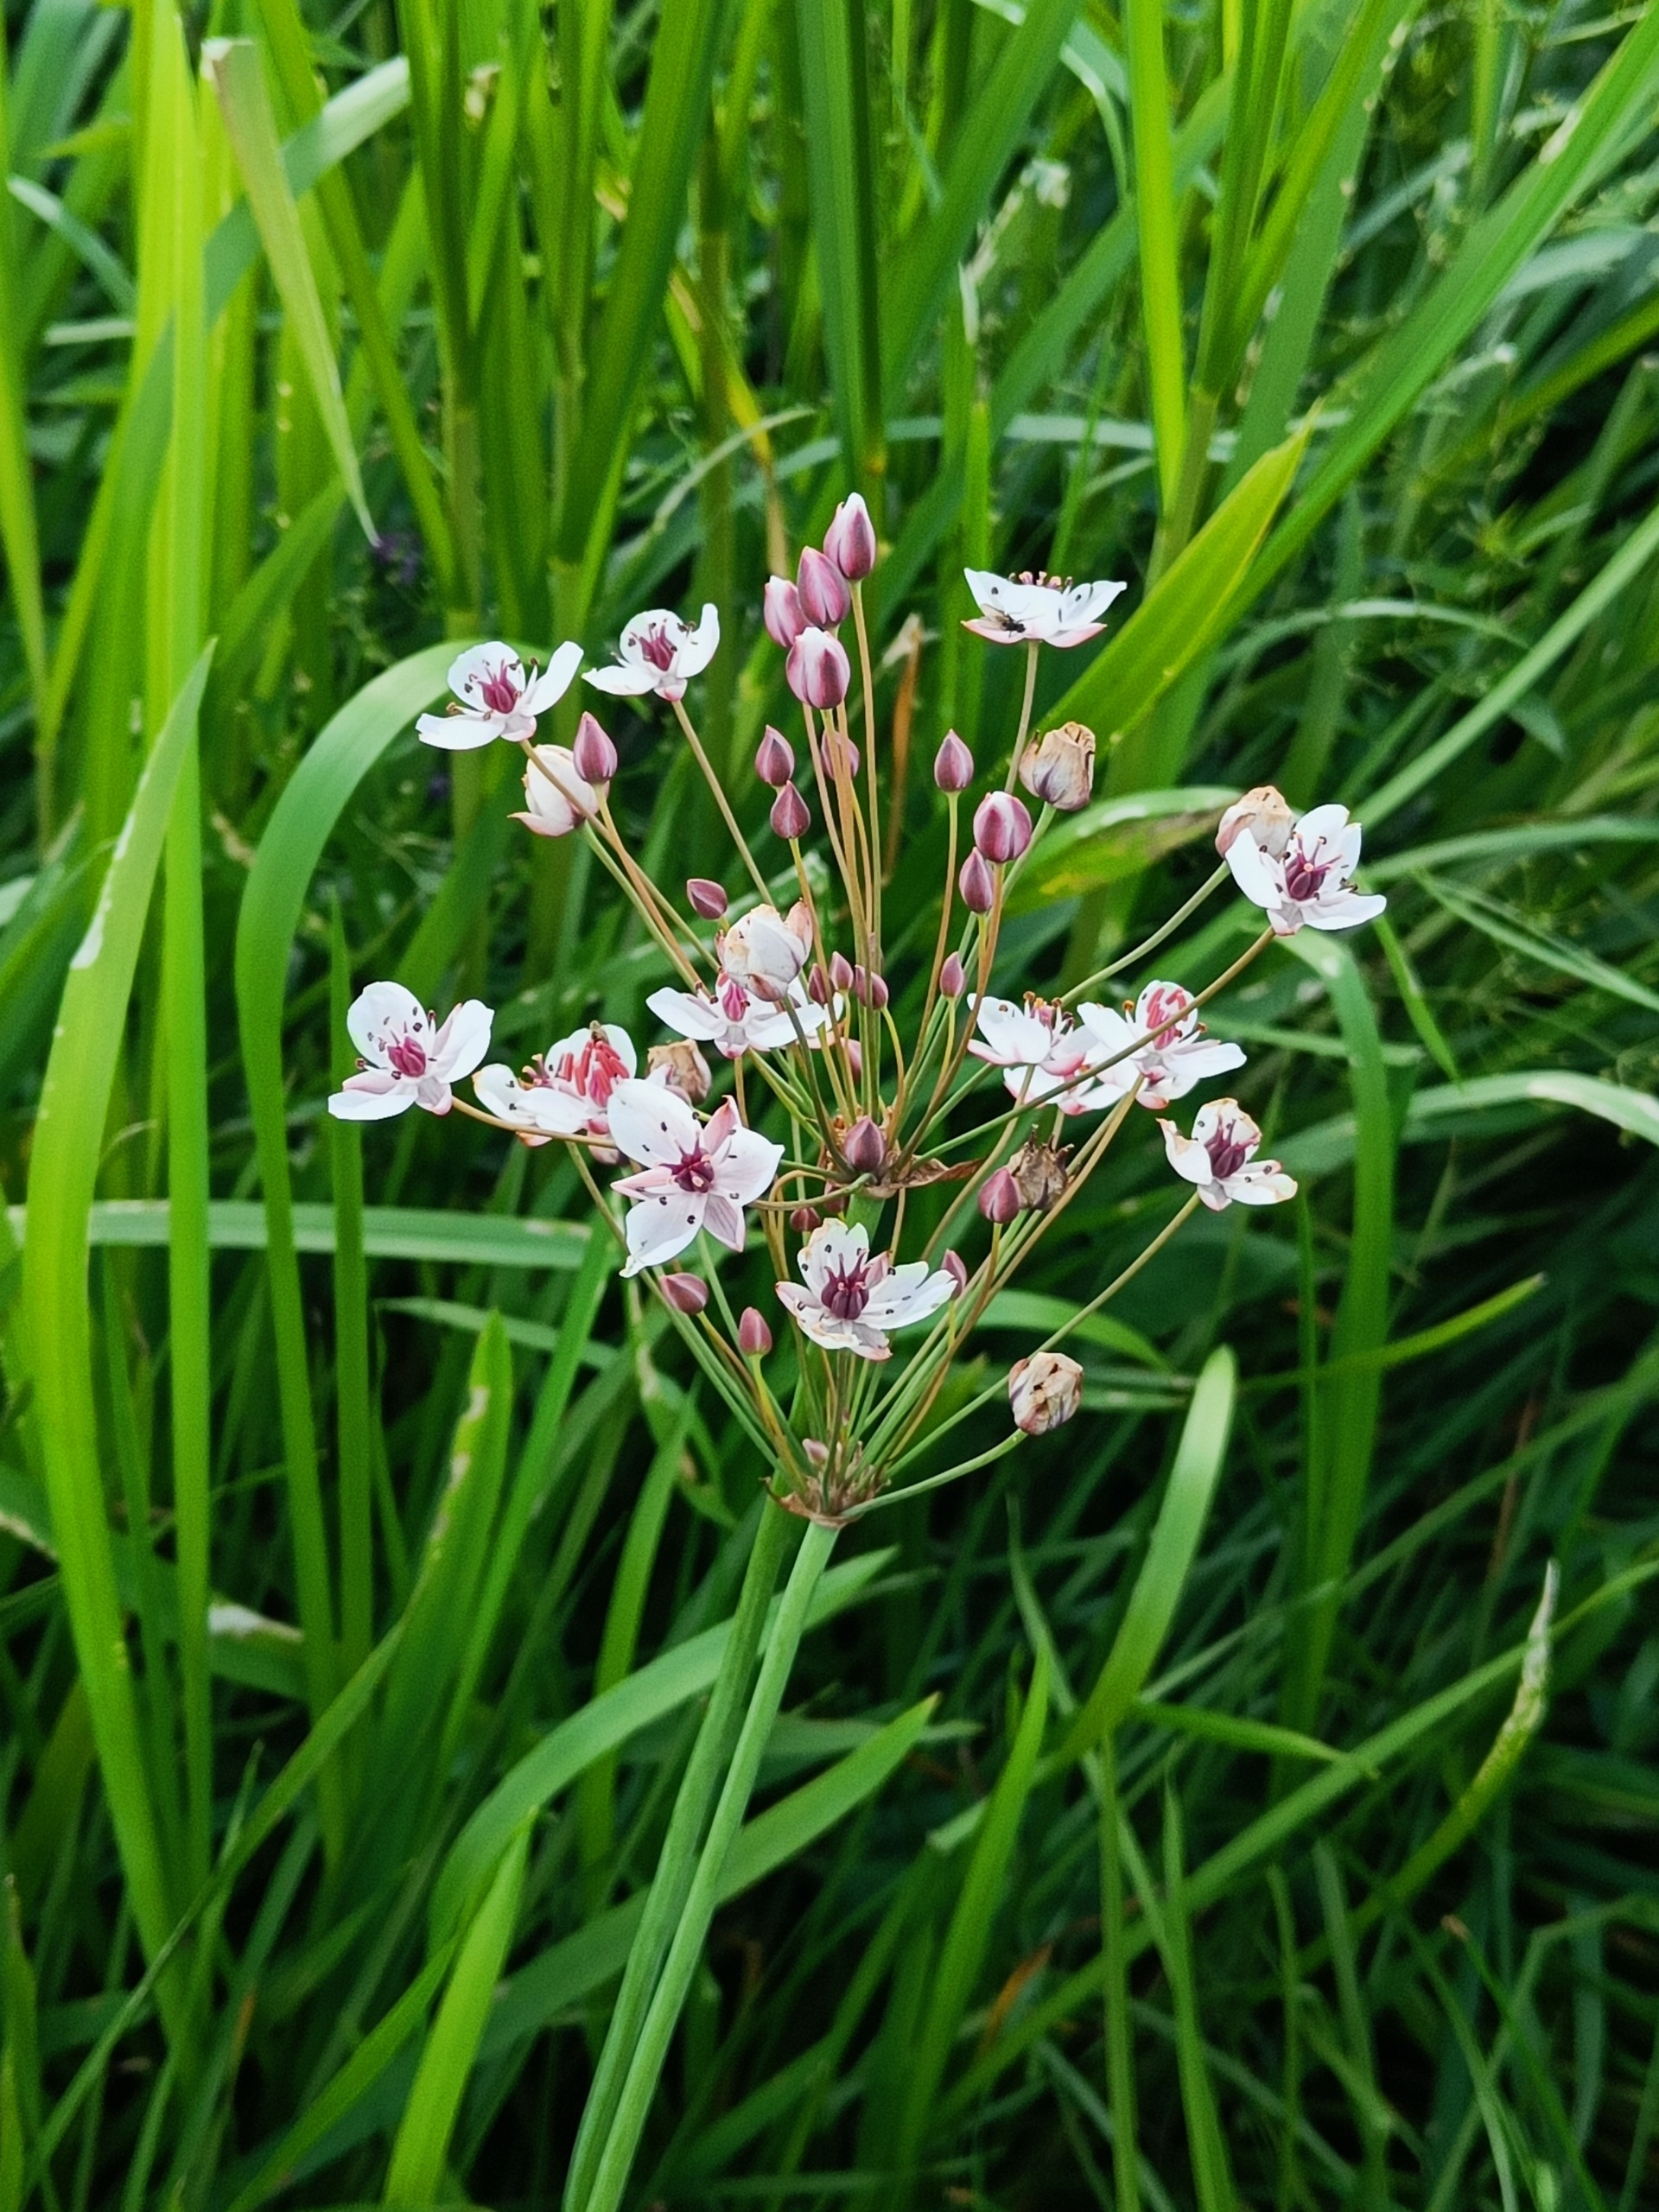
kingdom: Plantae
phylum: Tracheophyta
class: Liliopsida
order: Alismatales
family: Butomaceae
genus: Butomus
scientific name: Butomus umbellatus
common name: Brudelys
